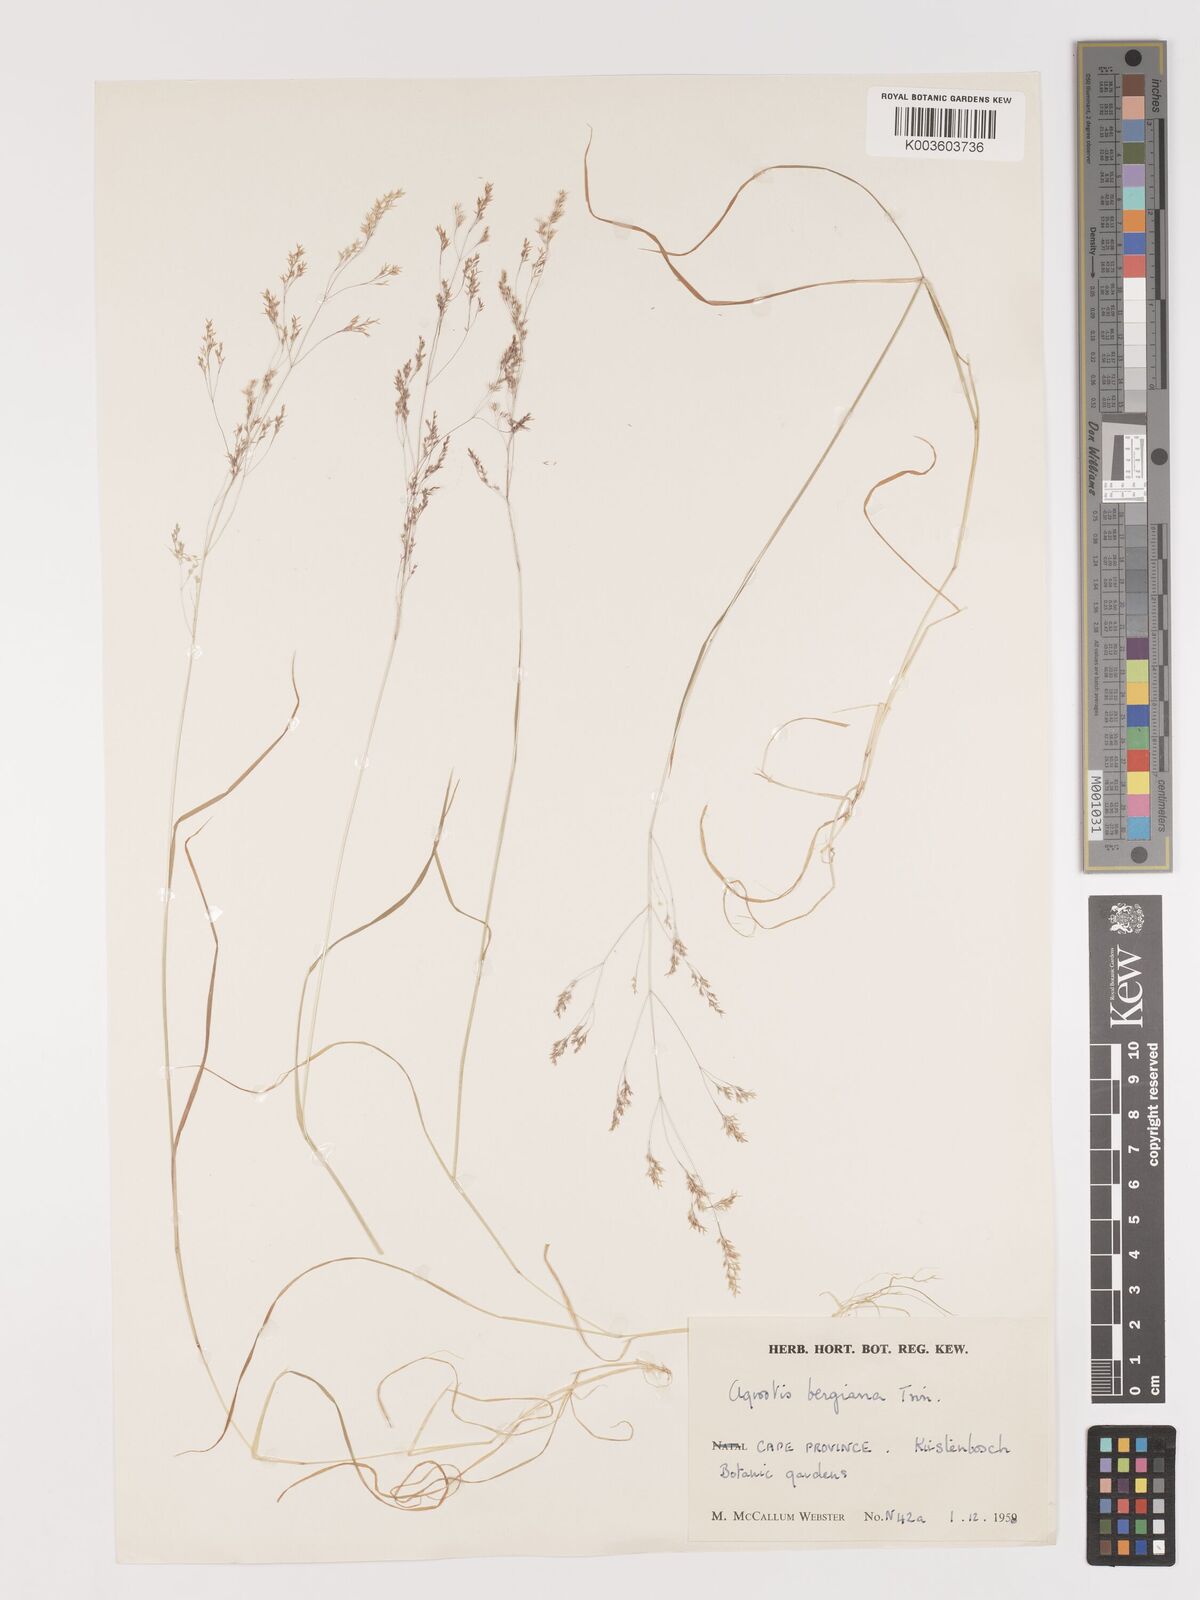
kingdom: Plantae
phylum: Tracheophyta
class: Liliopsida
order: Poales
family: Poaceae
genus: Agrostis
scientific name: Agrostis bergiana
